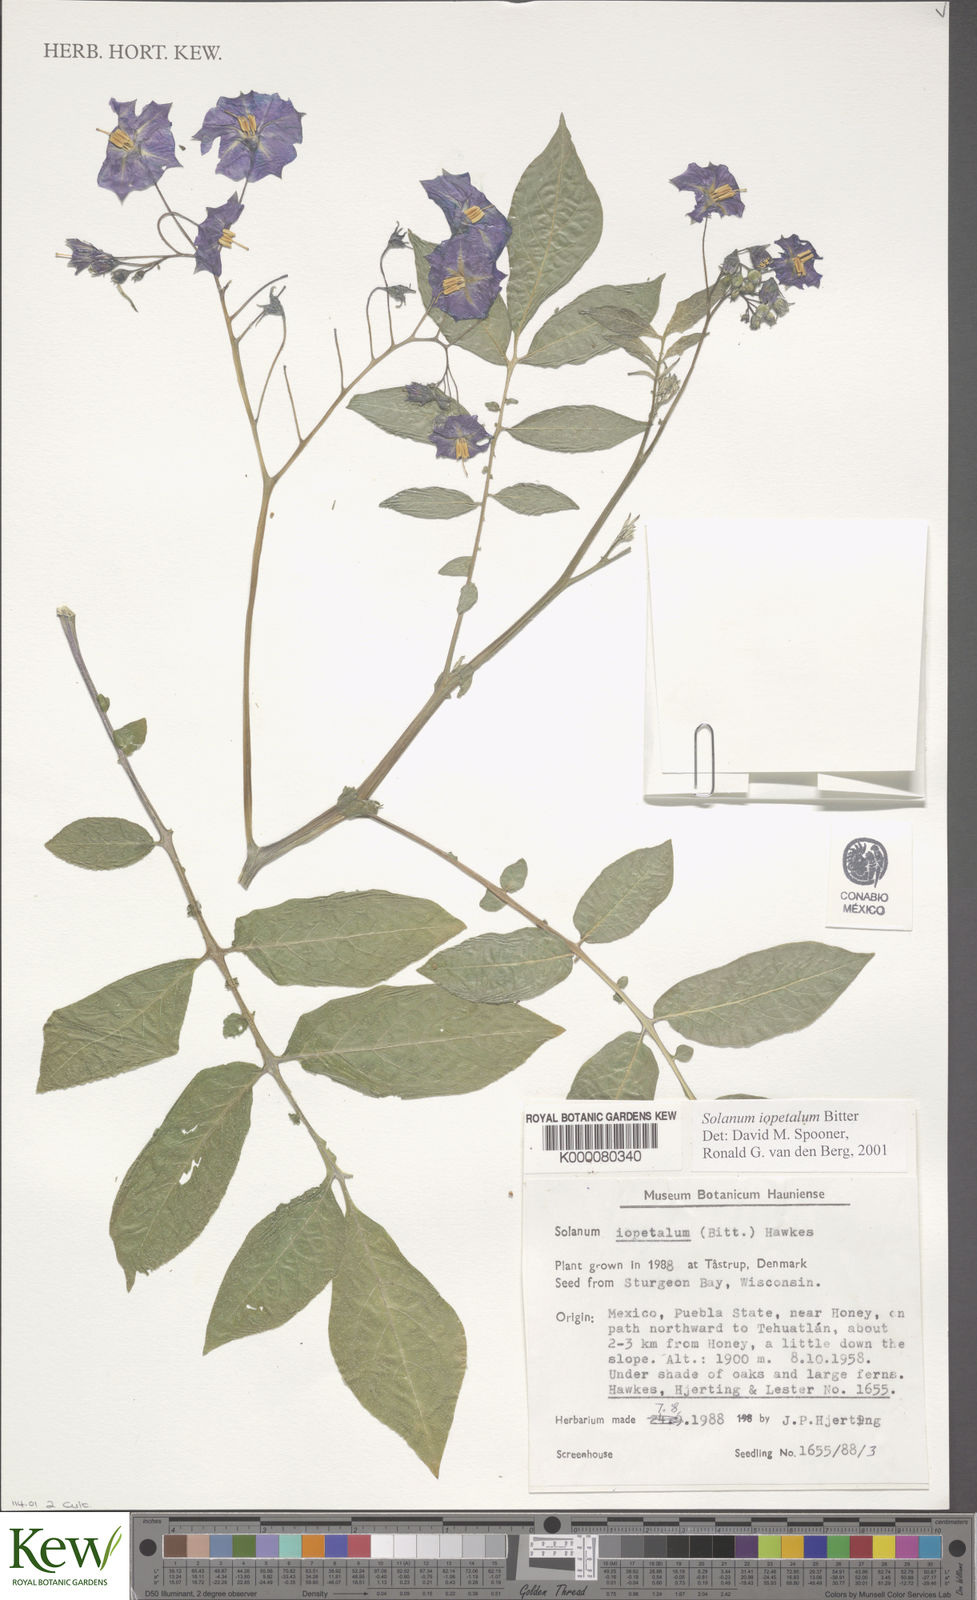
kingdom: Plantae
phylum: Tracheophyta
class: Magnoliopsida
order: Solanales
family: Solanaceae
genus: Solanum
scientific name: Solanum iopetalum
